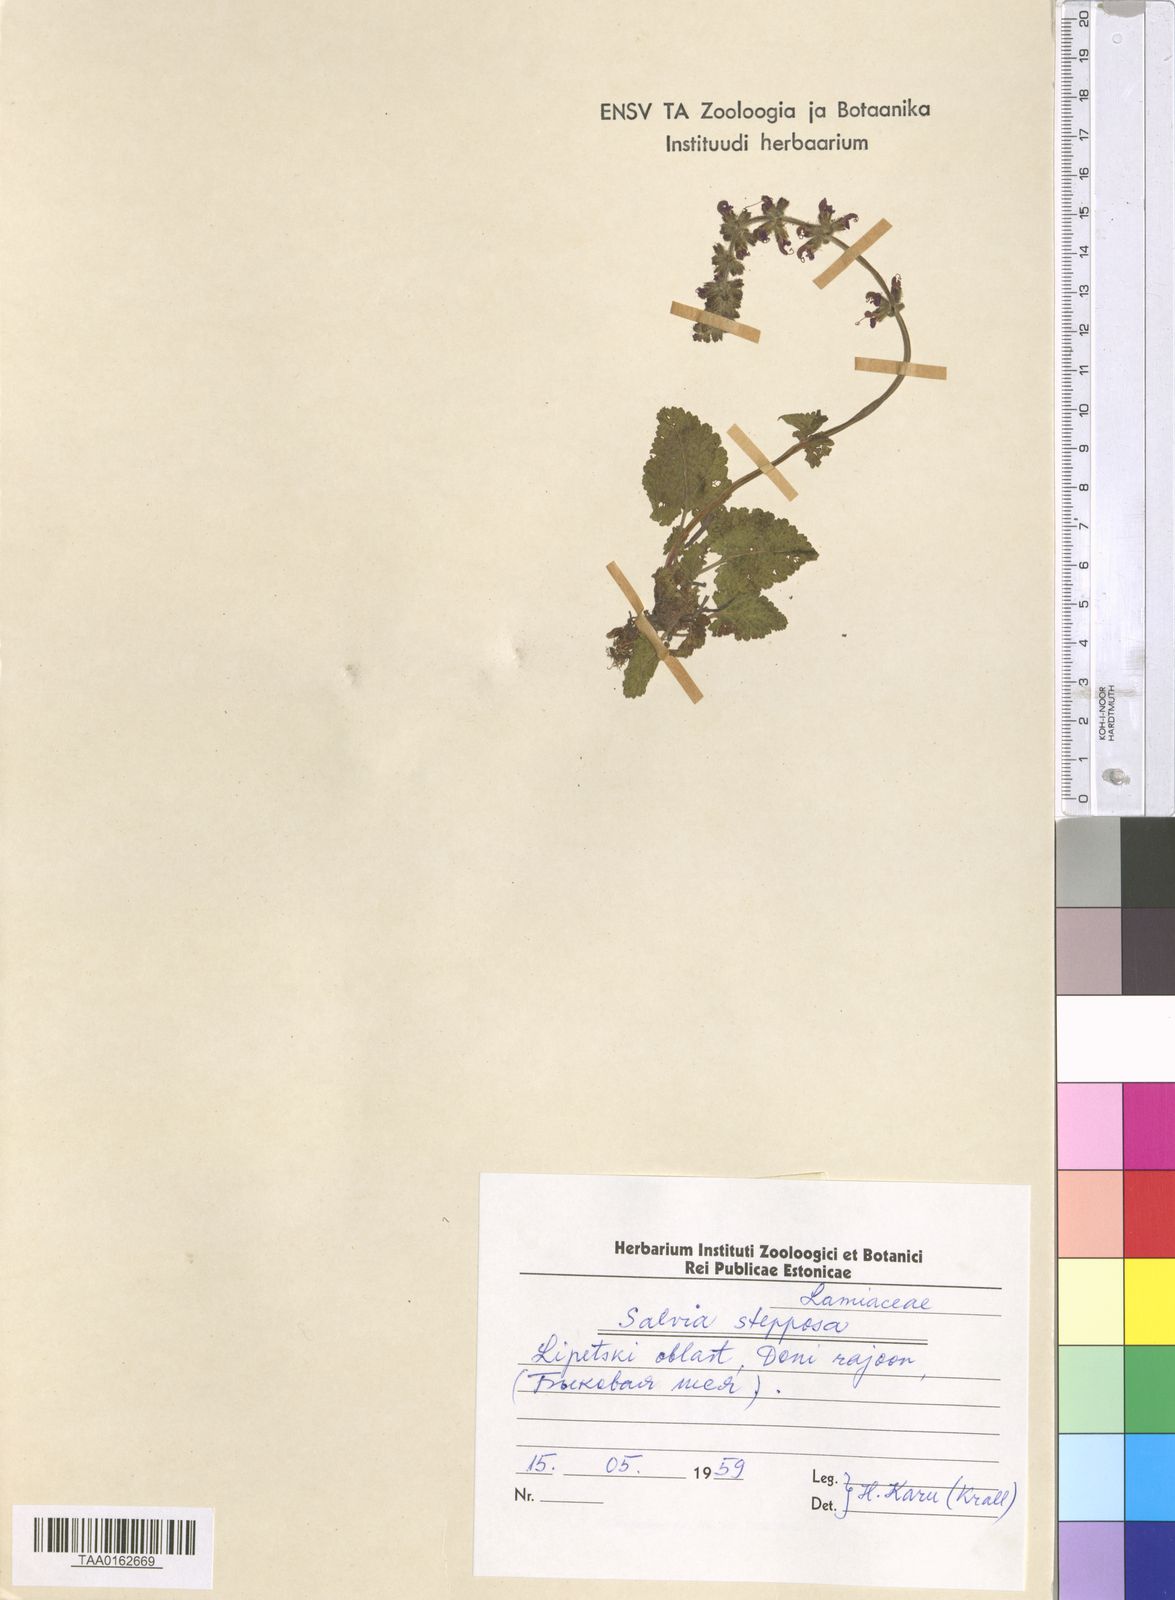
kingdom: Plantae
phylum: Tracheophyta
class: Magnoliopsida
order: Lamiales
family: Lamiaceae
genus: Salvia
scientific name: Salvia dumetorum
